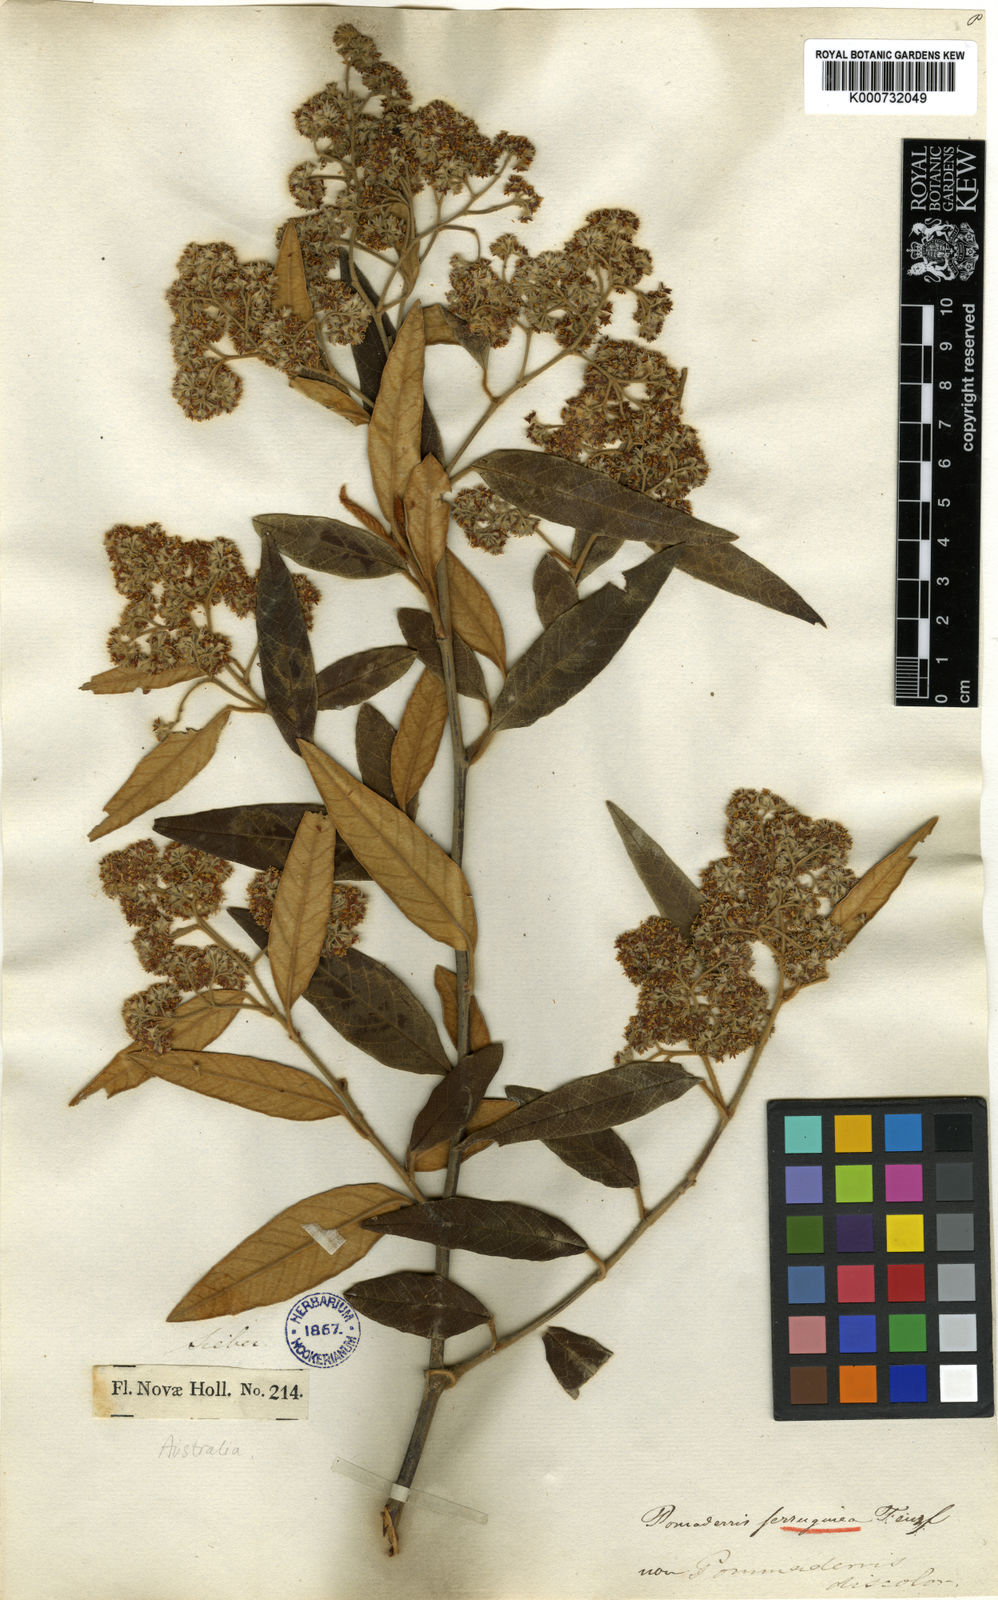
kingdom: Plantae
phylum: Tracheophyta
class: Magnoliopsida
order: Rosales
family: Rhamnaceae
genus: Pomaderris
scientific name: Pomaderris
